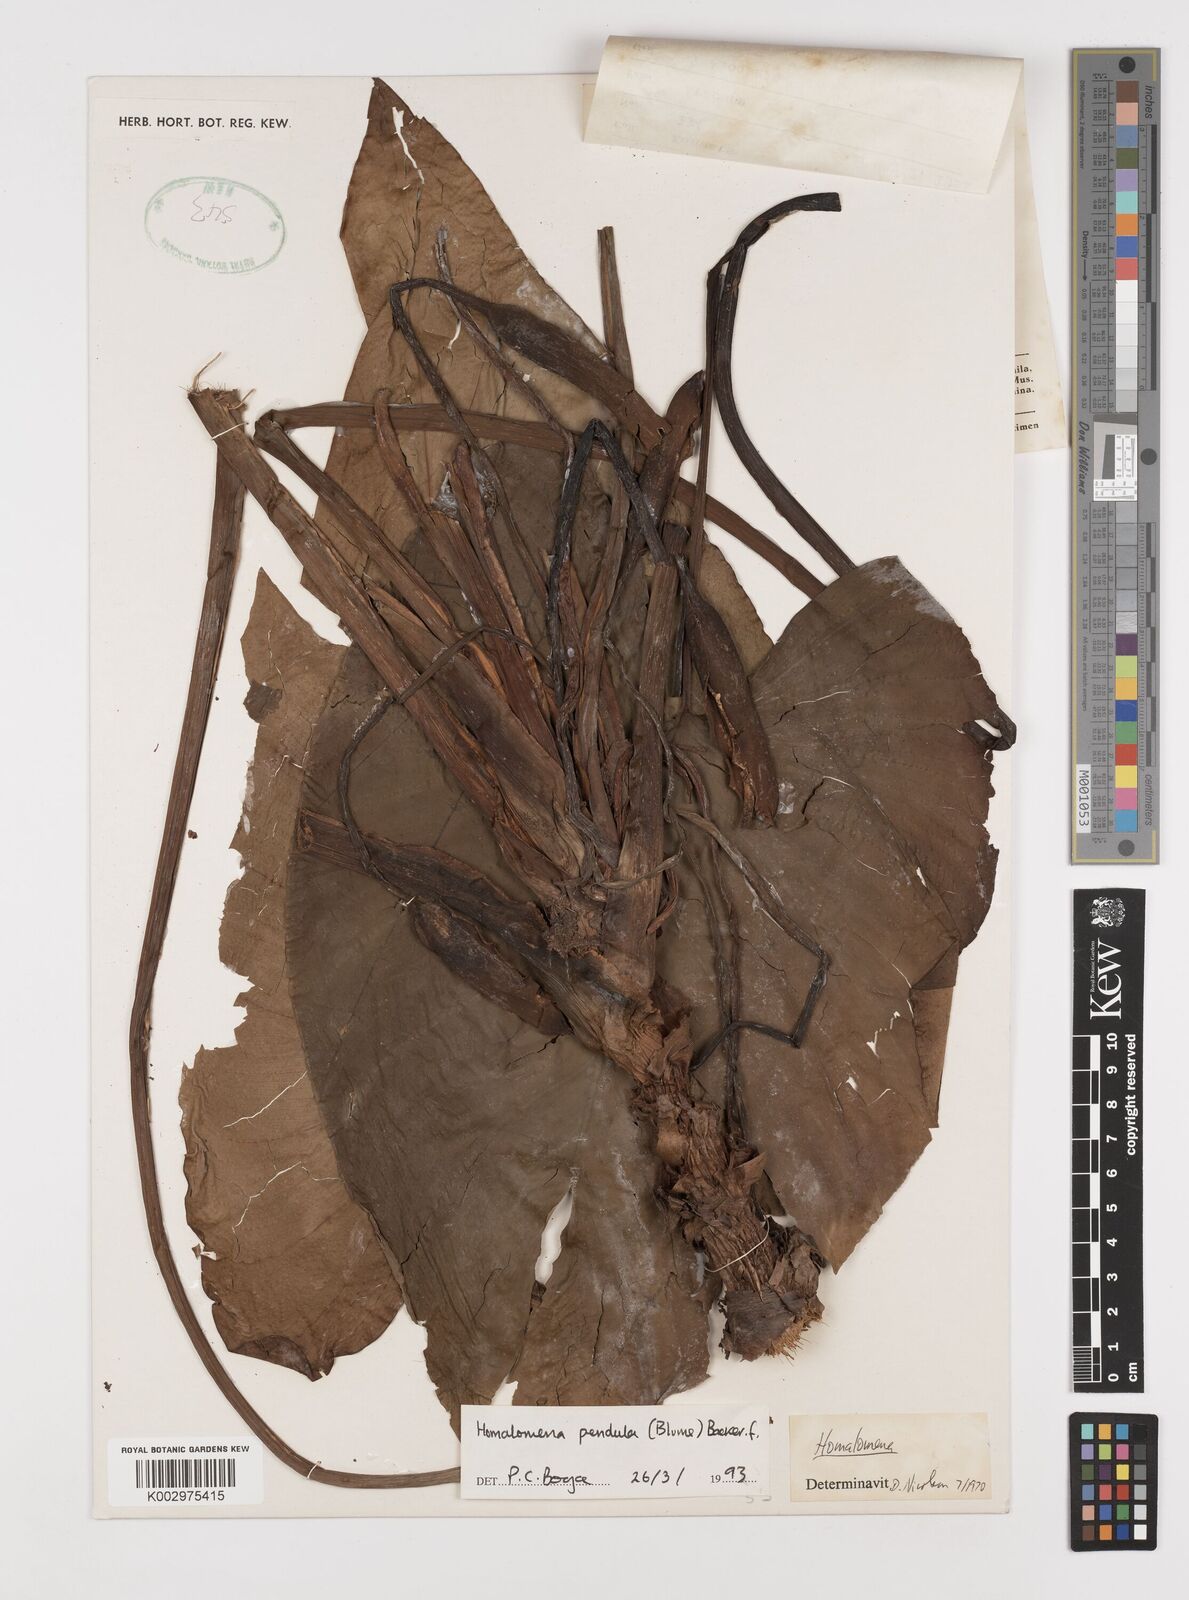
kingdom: Plantae
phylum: Tracheophyta
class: Liliopsida
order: Alismatales
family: Araceae
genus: Homalomena
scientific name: Homalomena pendula
